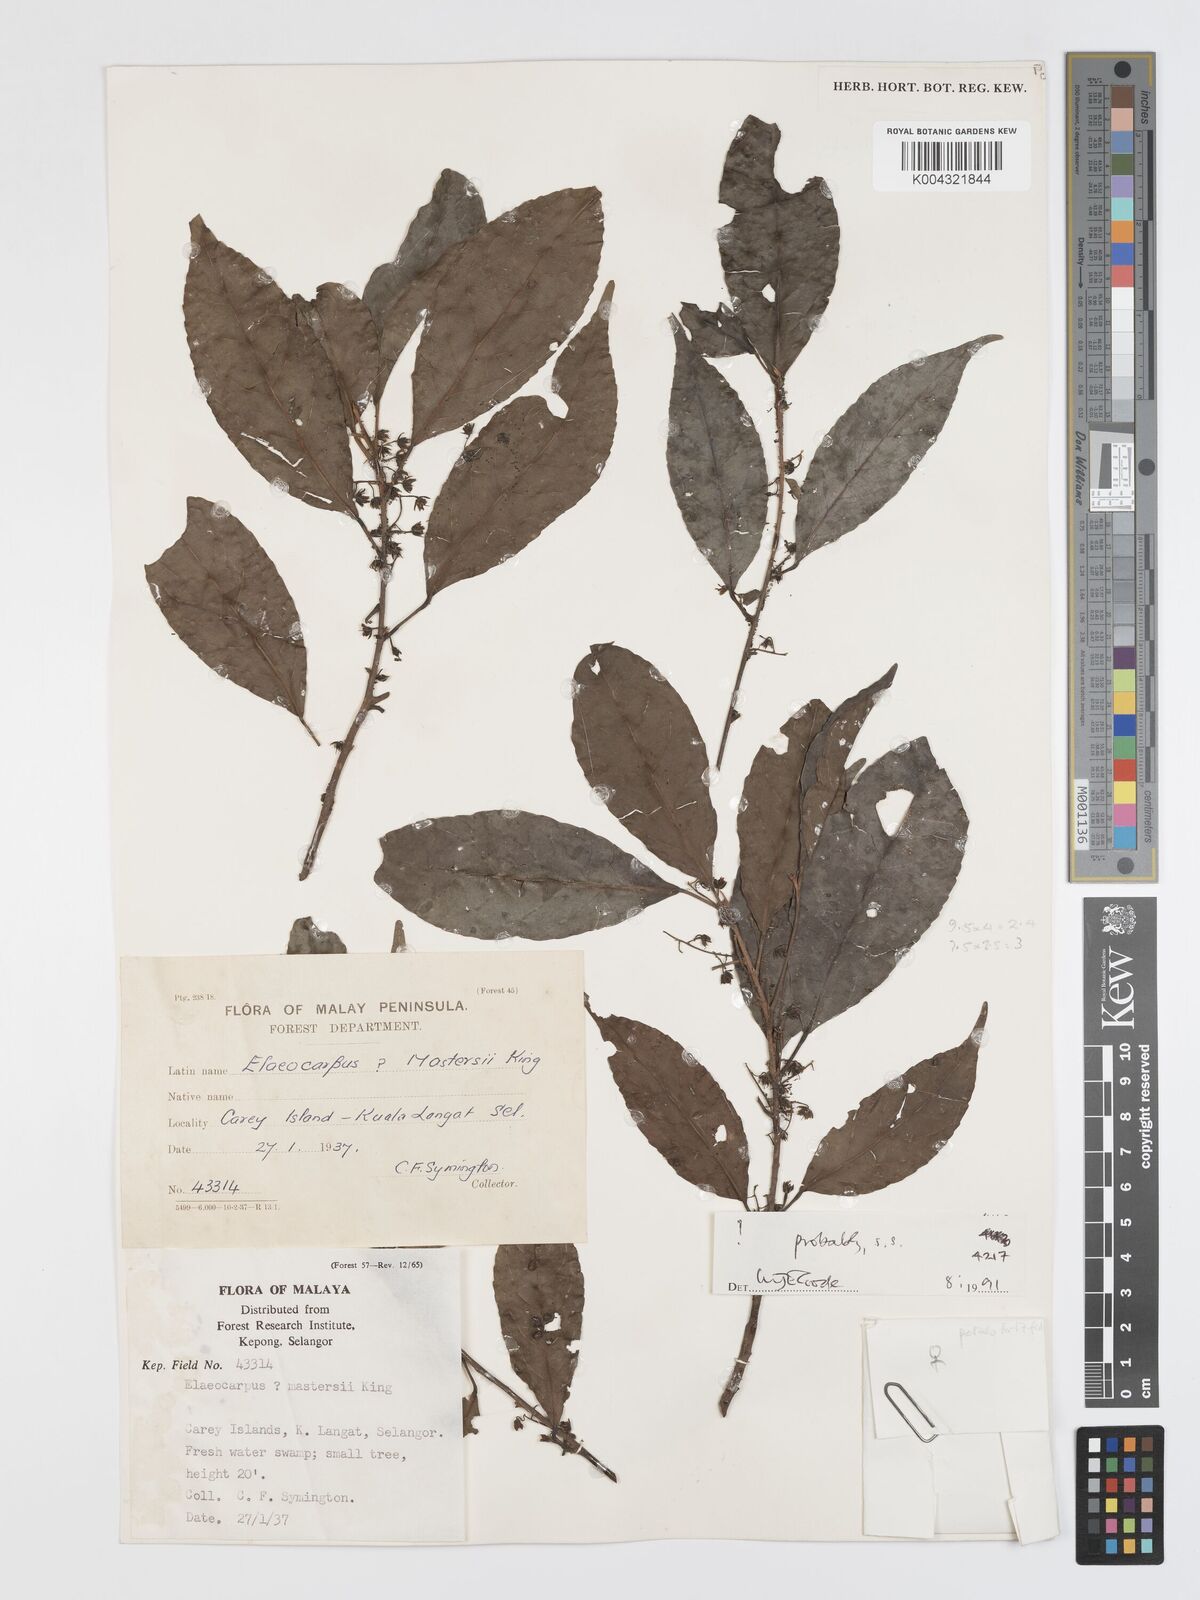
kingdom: Plantae
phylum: Tracheophyta
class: Magnoliopsida
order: Oxalidales
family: Elaeocarpaceae
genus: Elaeocarpus
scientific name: Elaeocarpus mastersii
